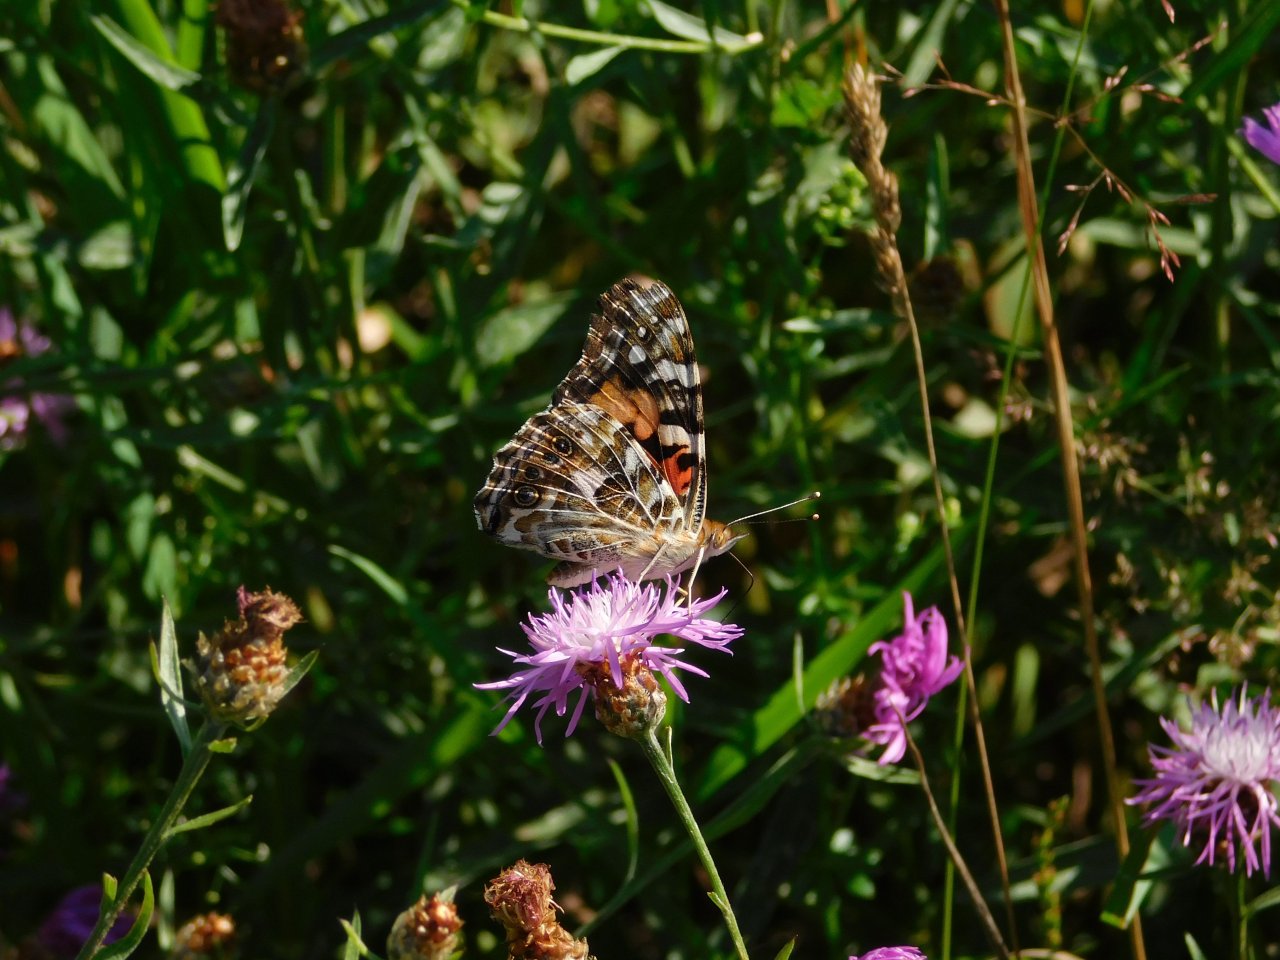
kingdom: Animalia
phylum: Arthropoda
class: Insecta
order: Lepidoptera
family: Nymphalidae
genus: Vanessa
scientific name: Vanessa cardui
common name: Painted Lady
